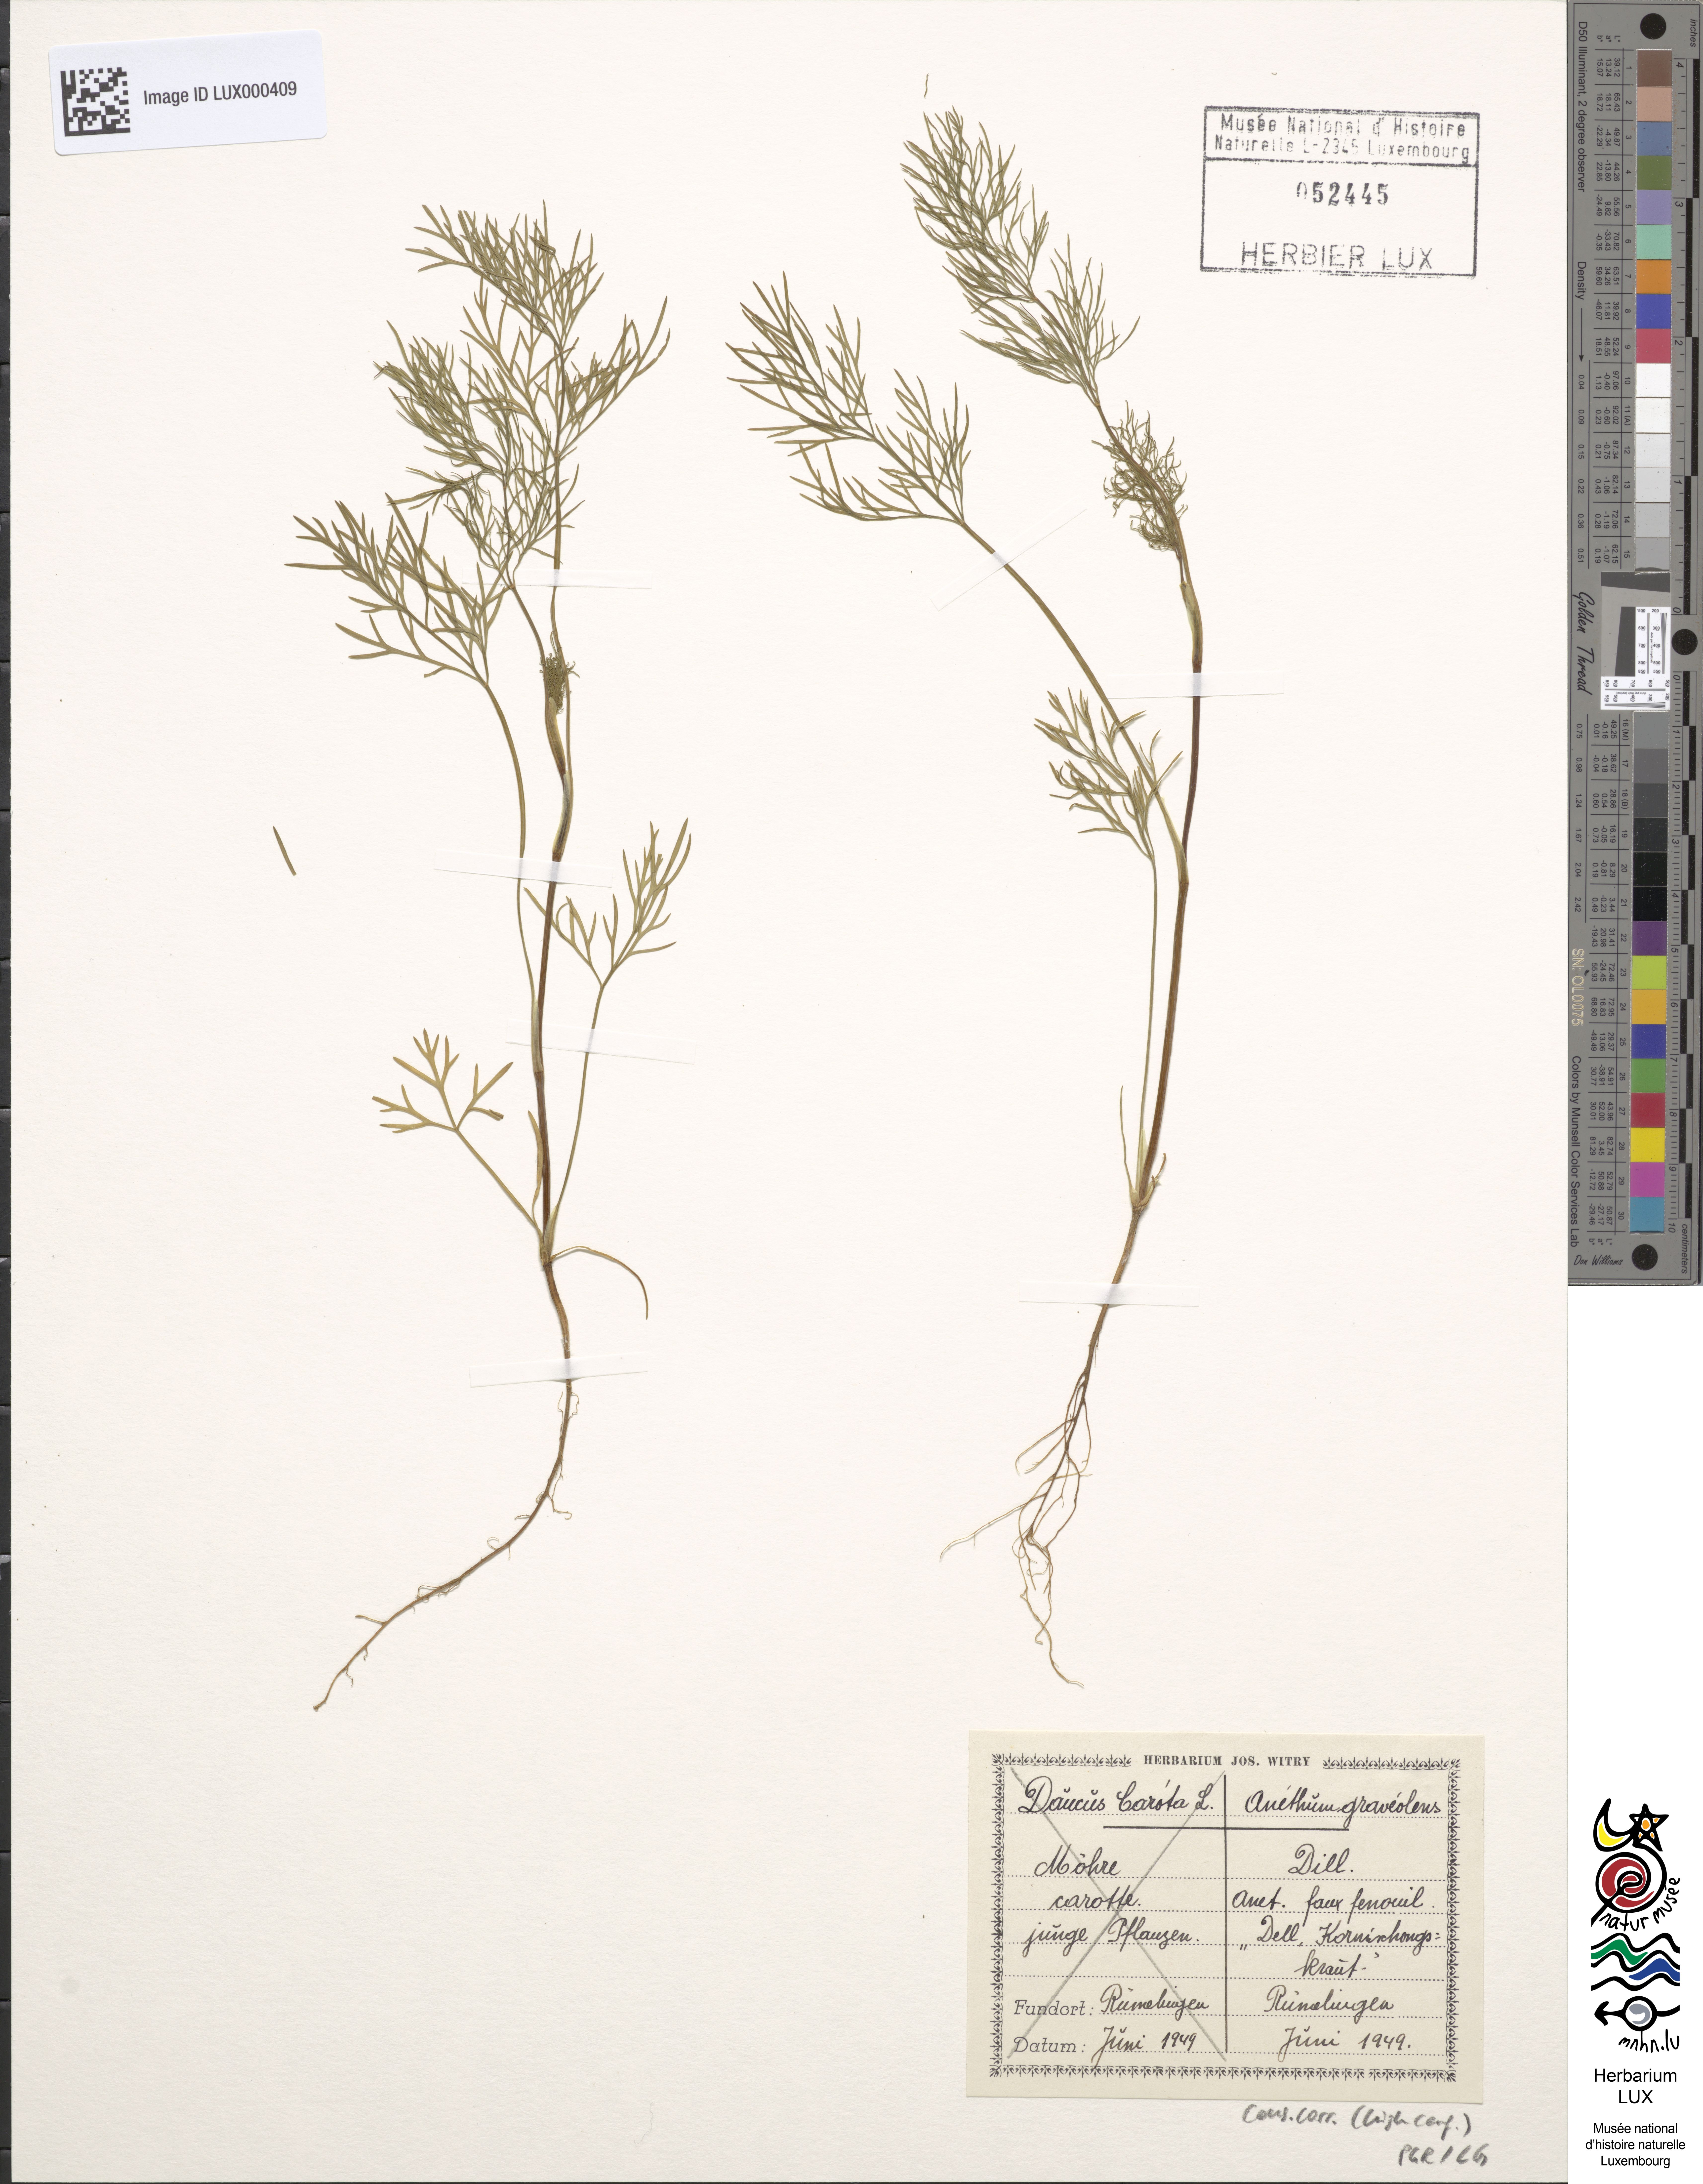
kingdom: Plantae
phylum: Tracheophyta
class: Magnoliopsida
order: Apiales
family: Apiaceae
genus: Anethum
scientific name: Anethum graveolens
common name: Dill
